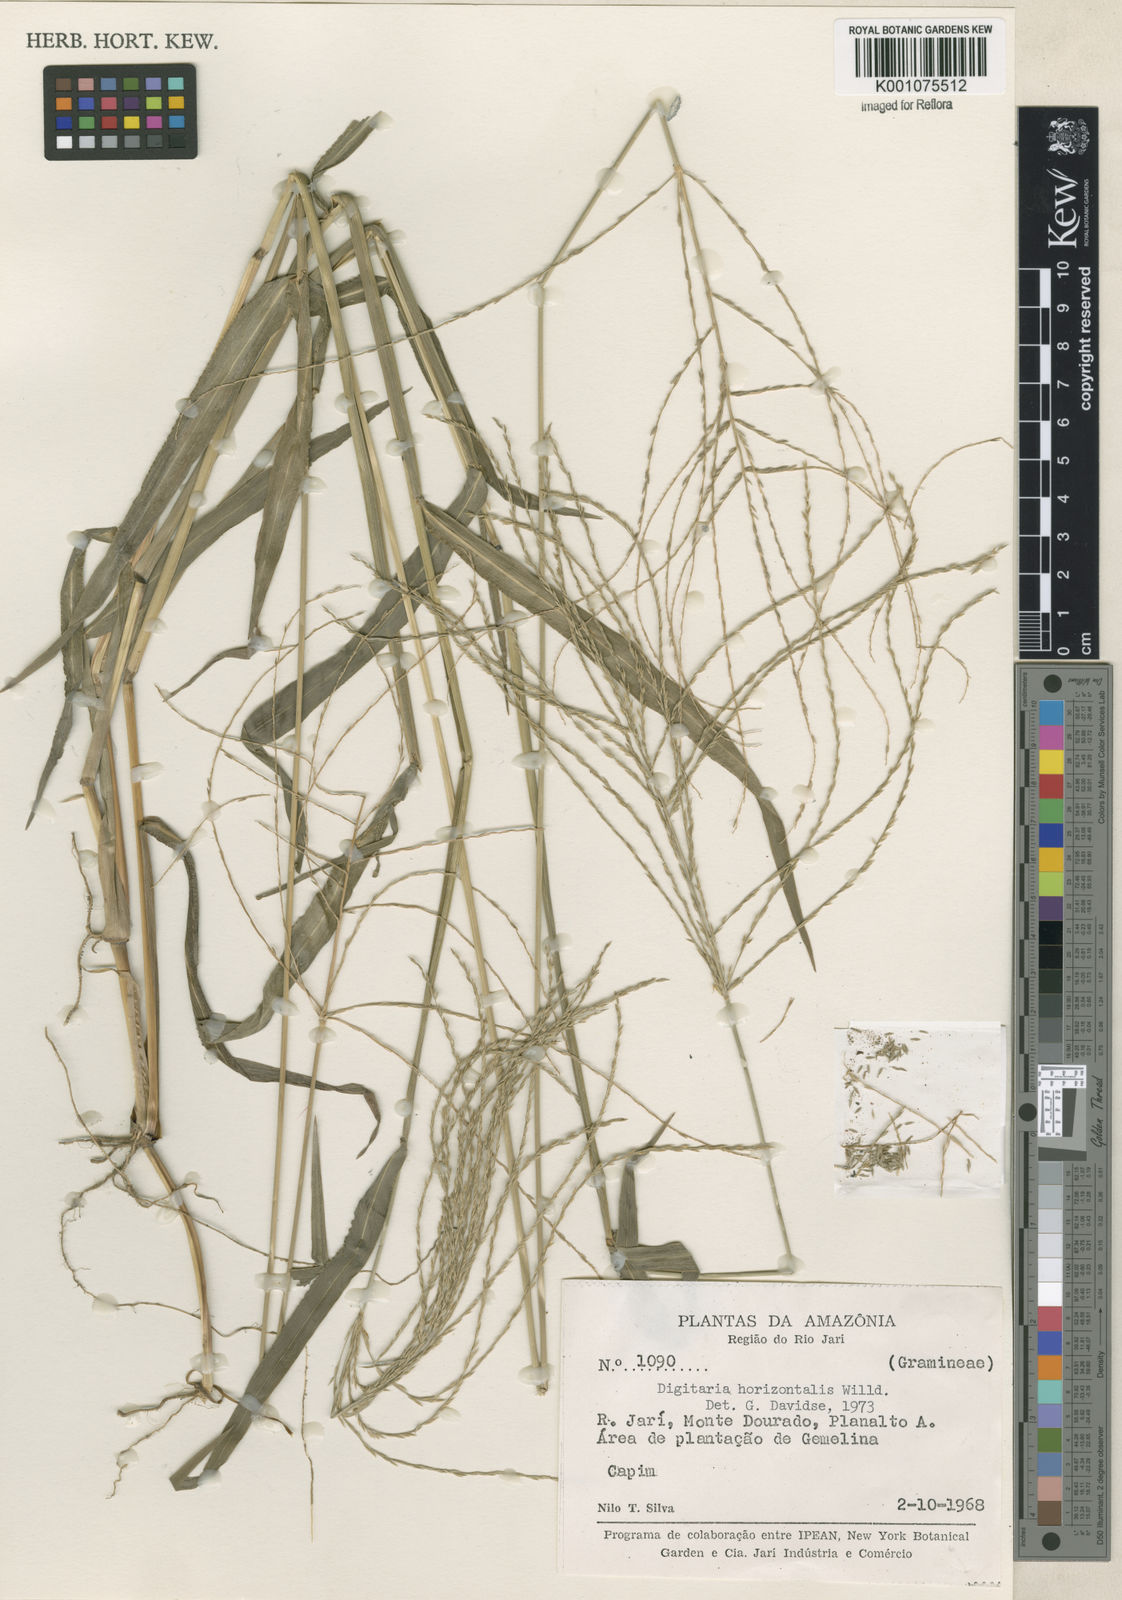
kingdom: Plantae
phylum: Tracheophyta
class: Liliopsida
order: Poales
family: Poaceae
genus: Digitaria
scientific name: Digitaria horizontalis
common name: Jamaican crabgrass
